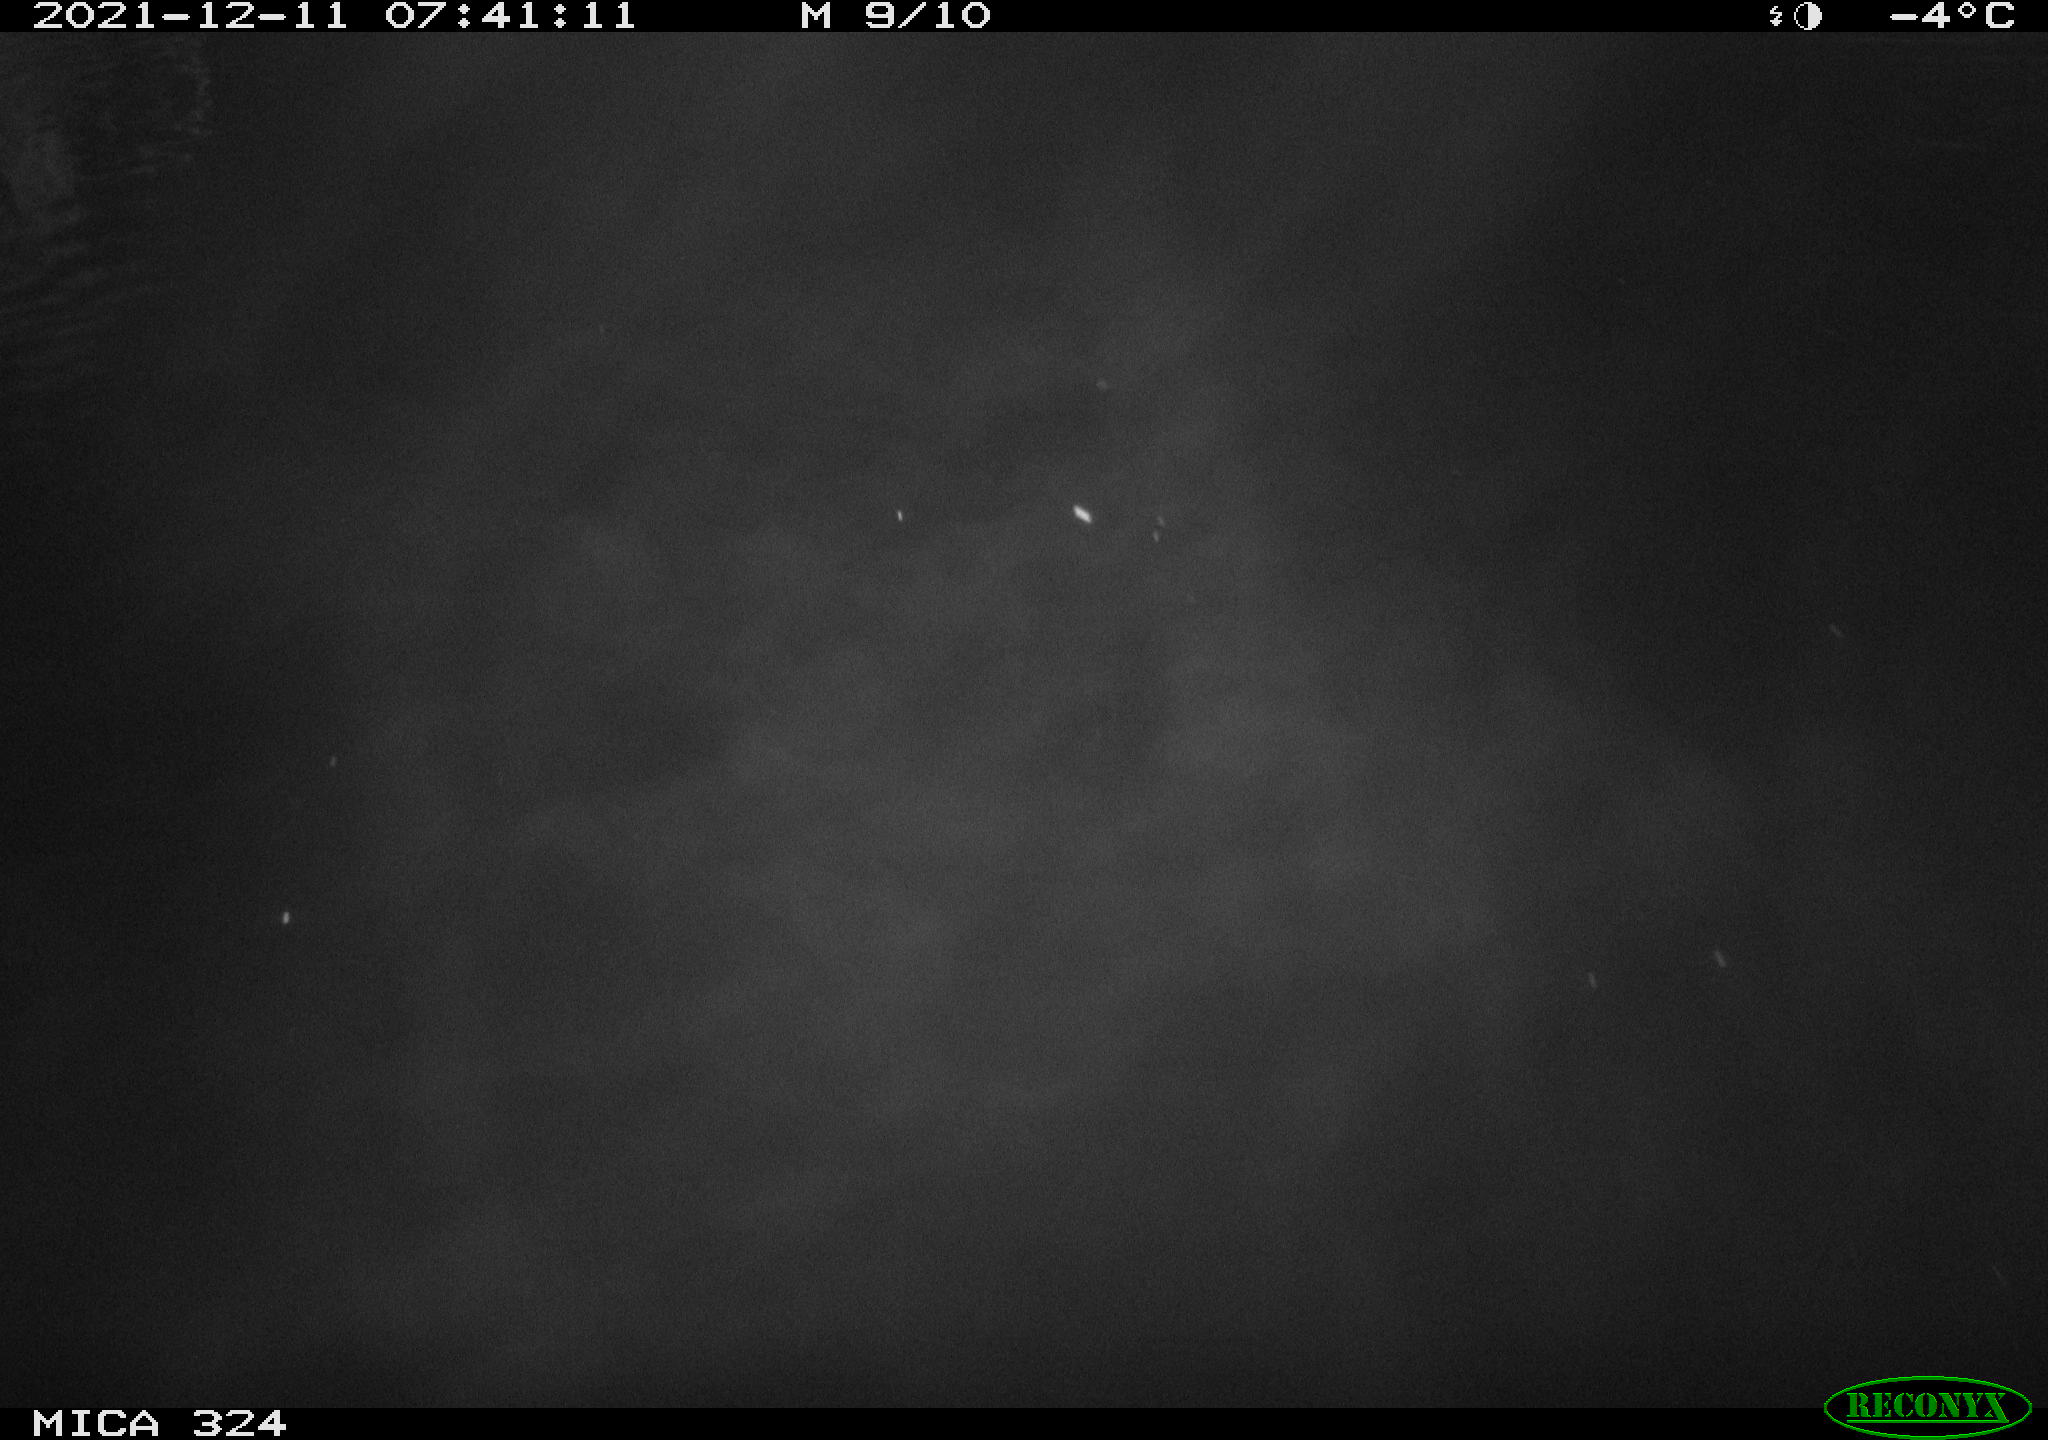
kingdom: Animalia
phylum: Chordata
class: Mammalia
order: Rodentia
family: Cricetidae
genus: Ondatra
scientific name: Ondatra zibethicus
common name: Muskrat
